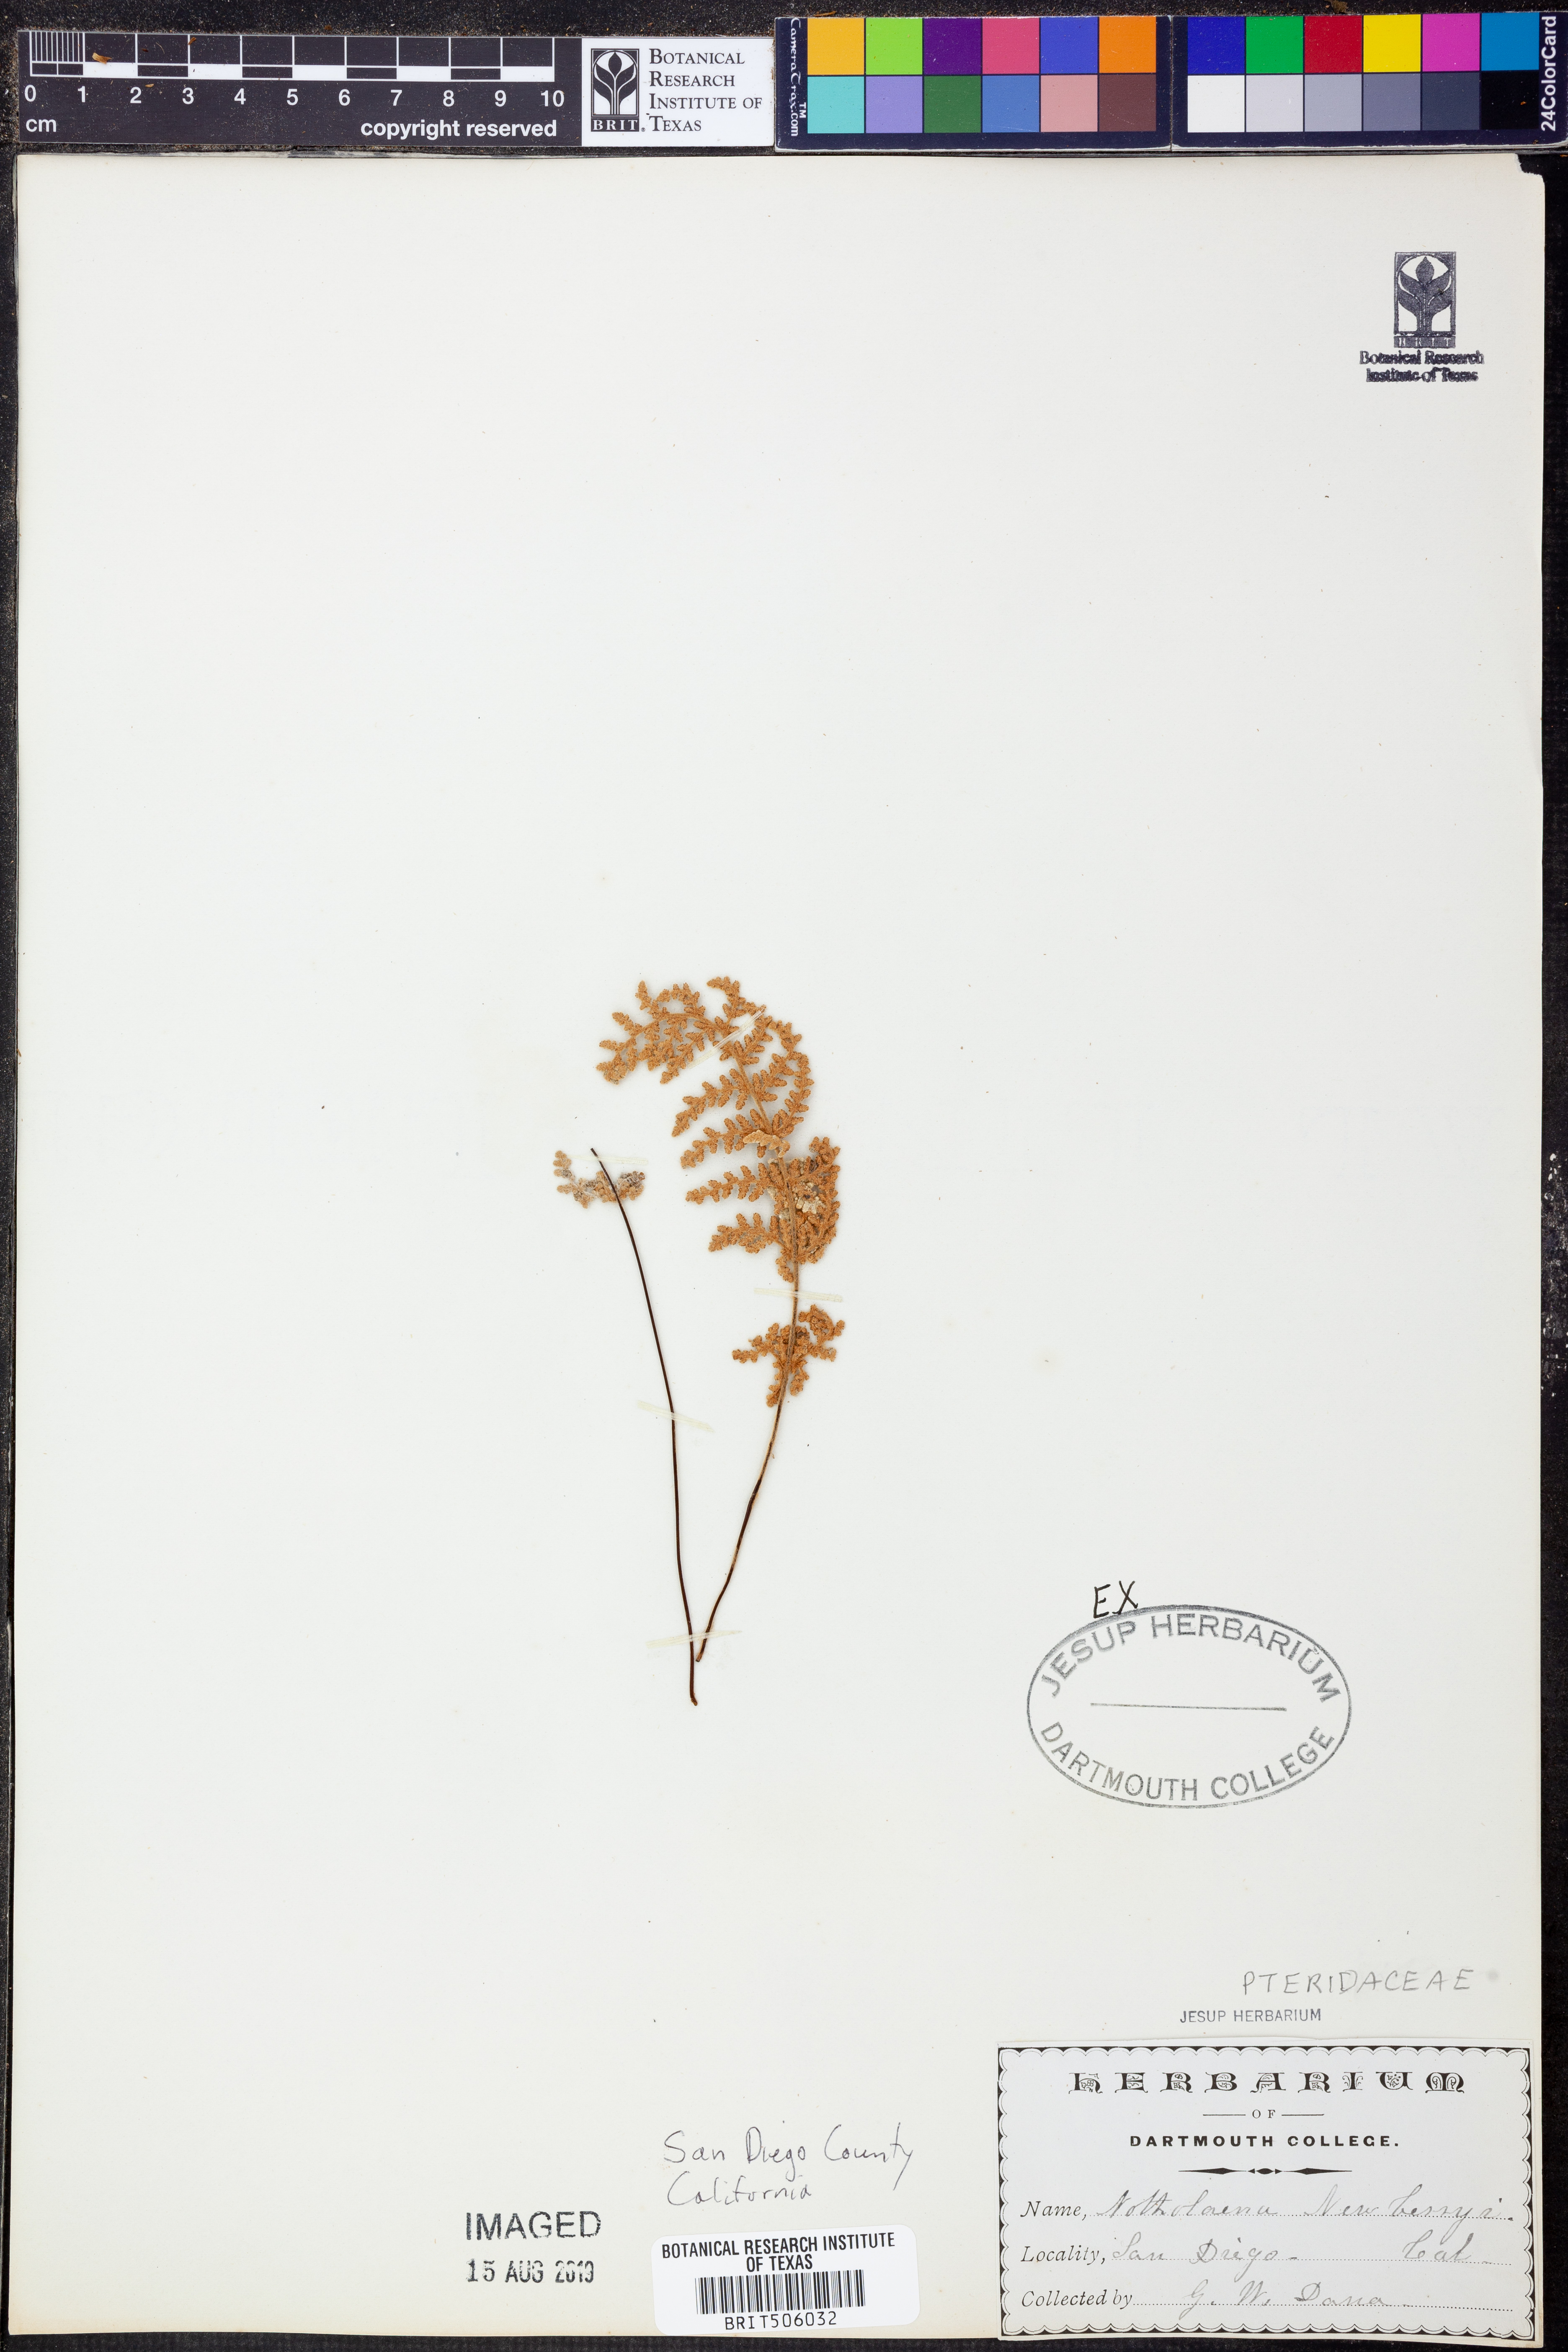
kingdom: Plantae
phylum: Tracheophyta
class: Polypodiopsida
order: Polypodiales
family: Pteridaceae
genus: Myriopteris
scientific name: Myriopteris newberryi
